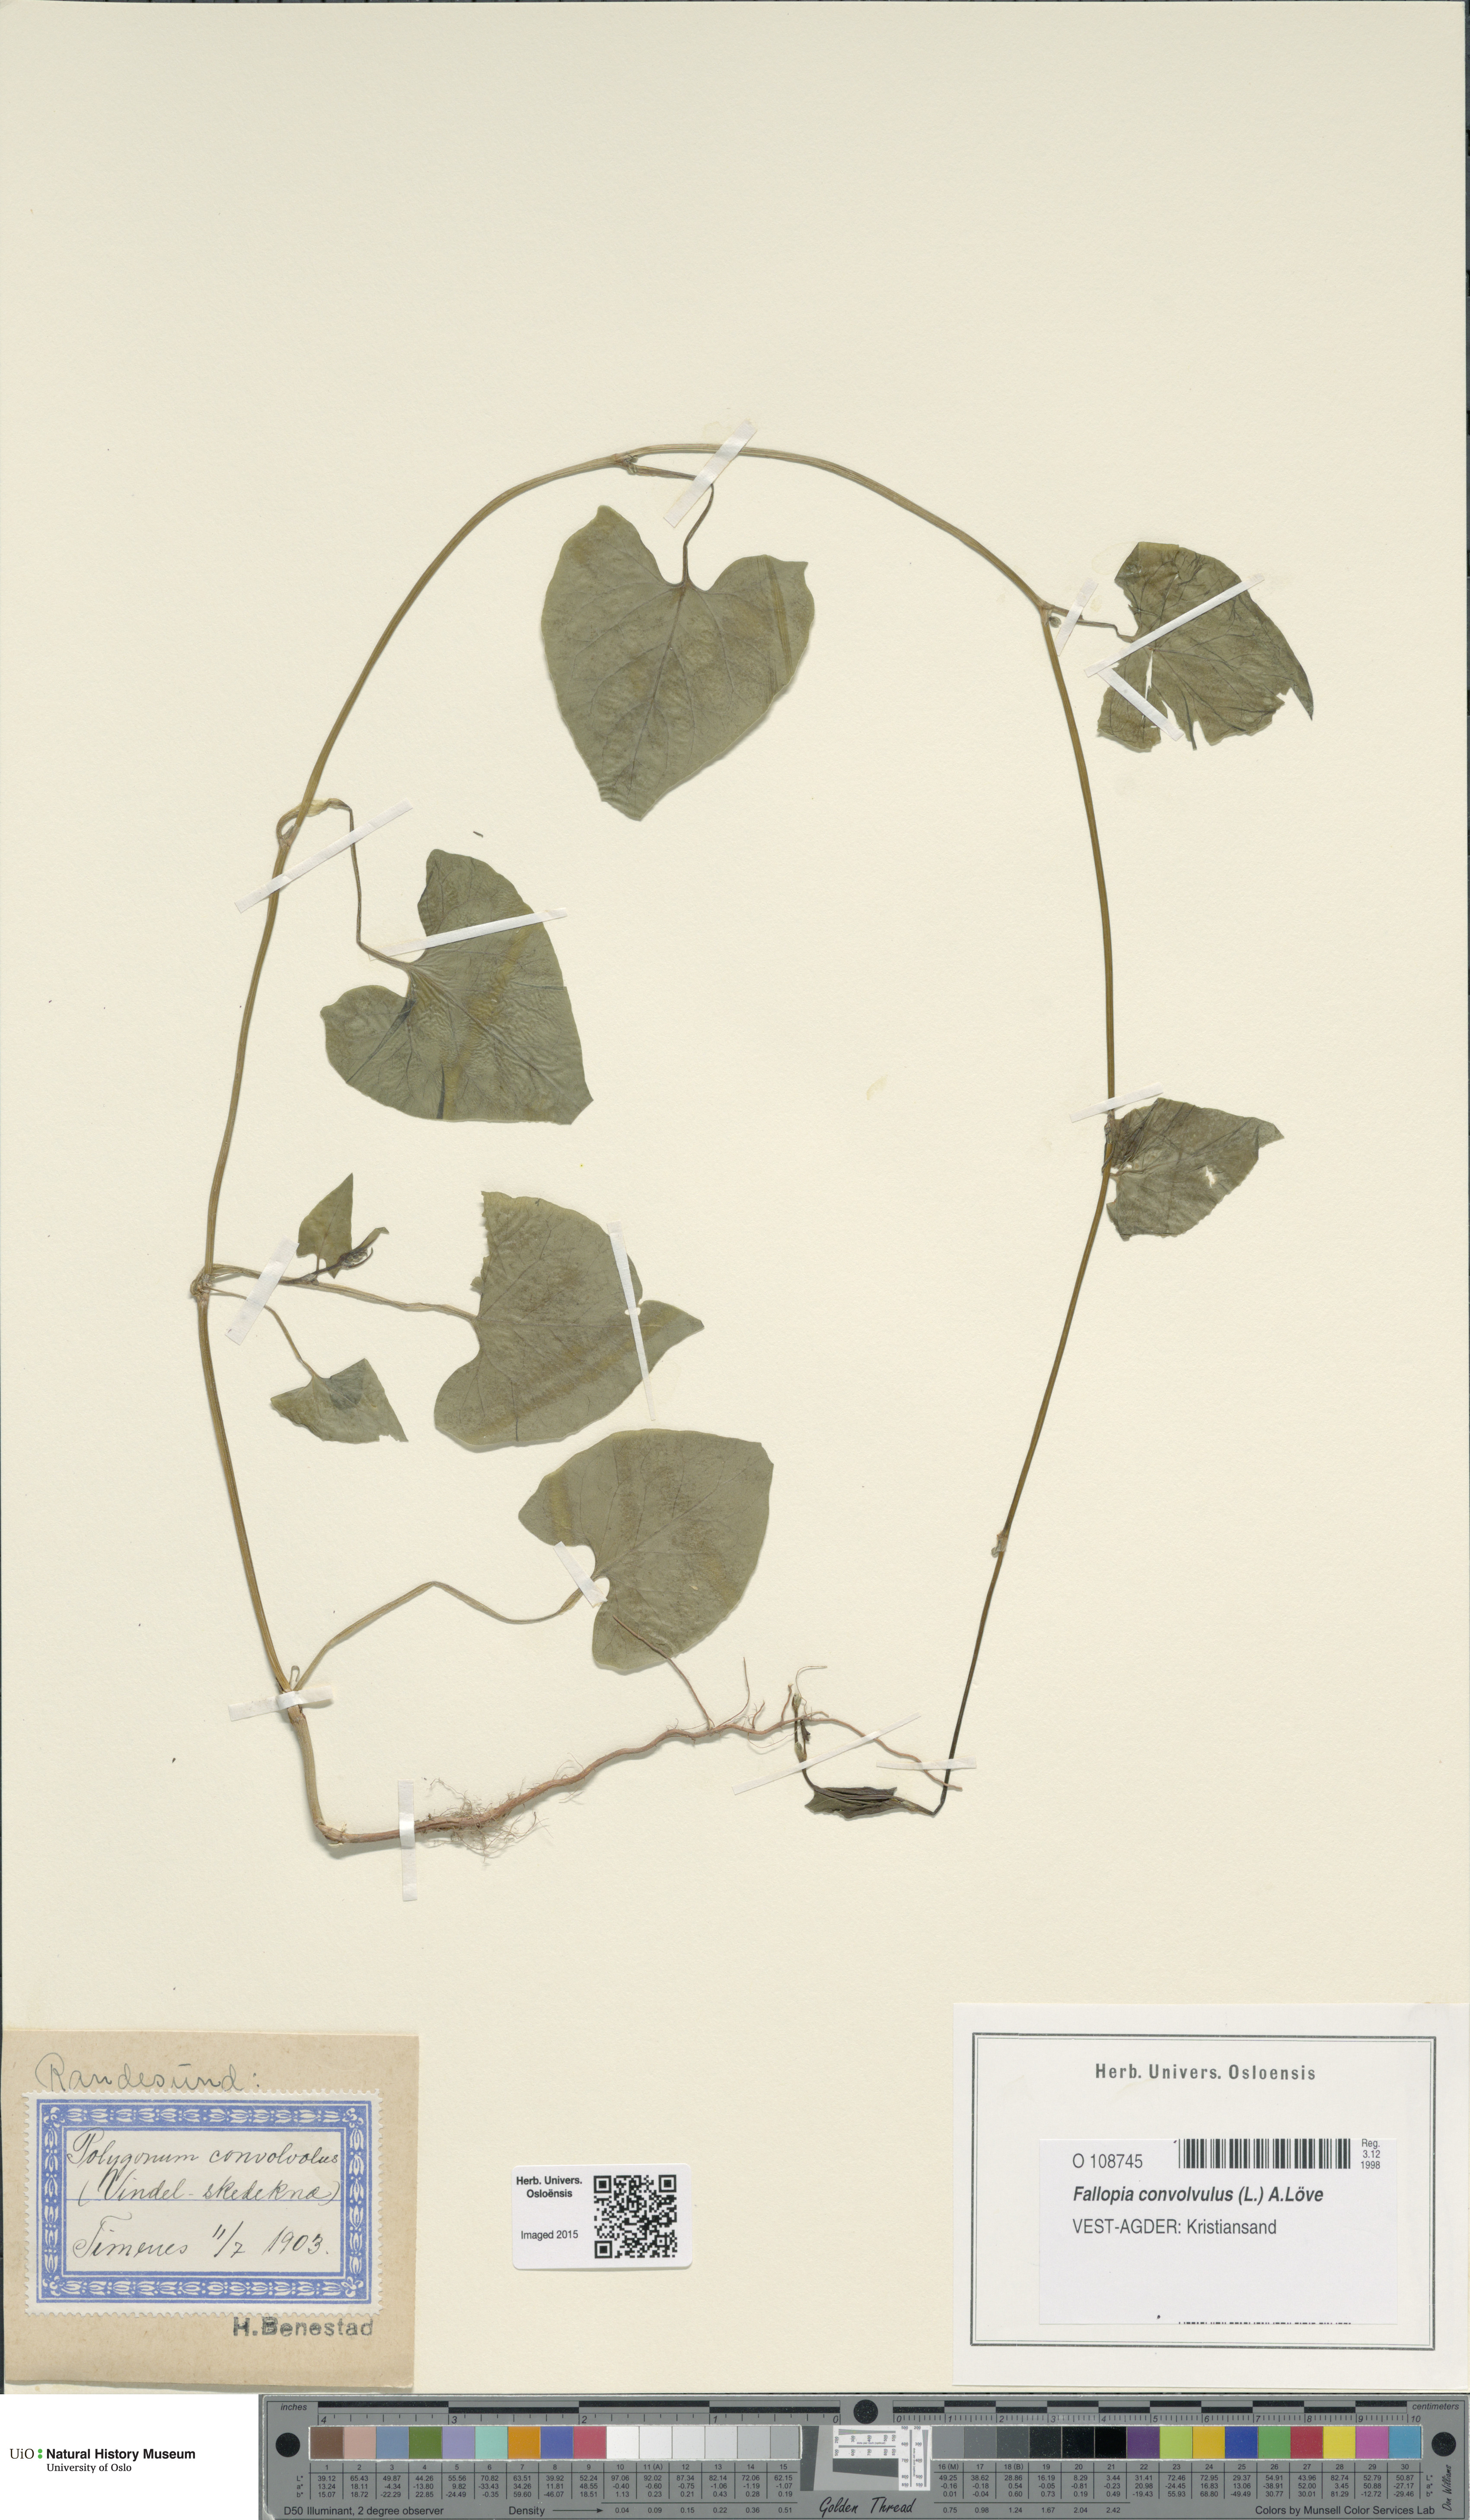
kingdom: Plantae
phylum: Tracheophyta
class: Magnoliopsida
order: Caryophyllales
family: Polygonaceae
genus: Fallopia
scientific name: Fallopia convolvulus
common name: Black bindweed
